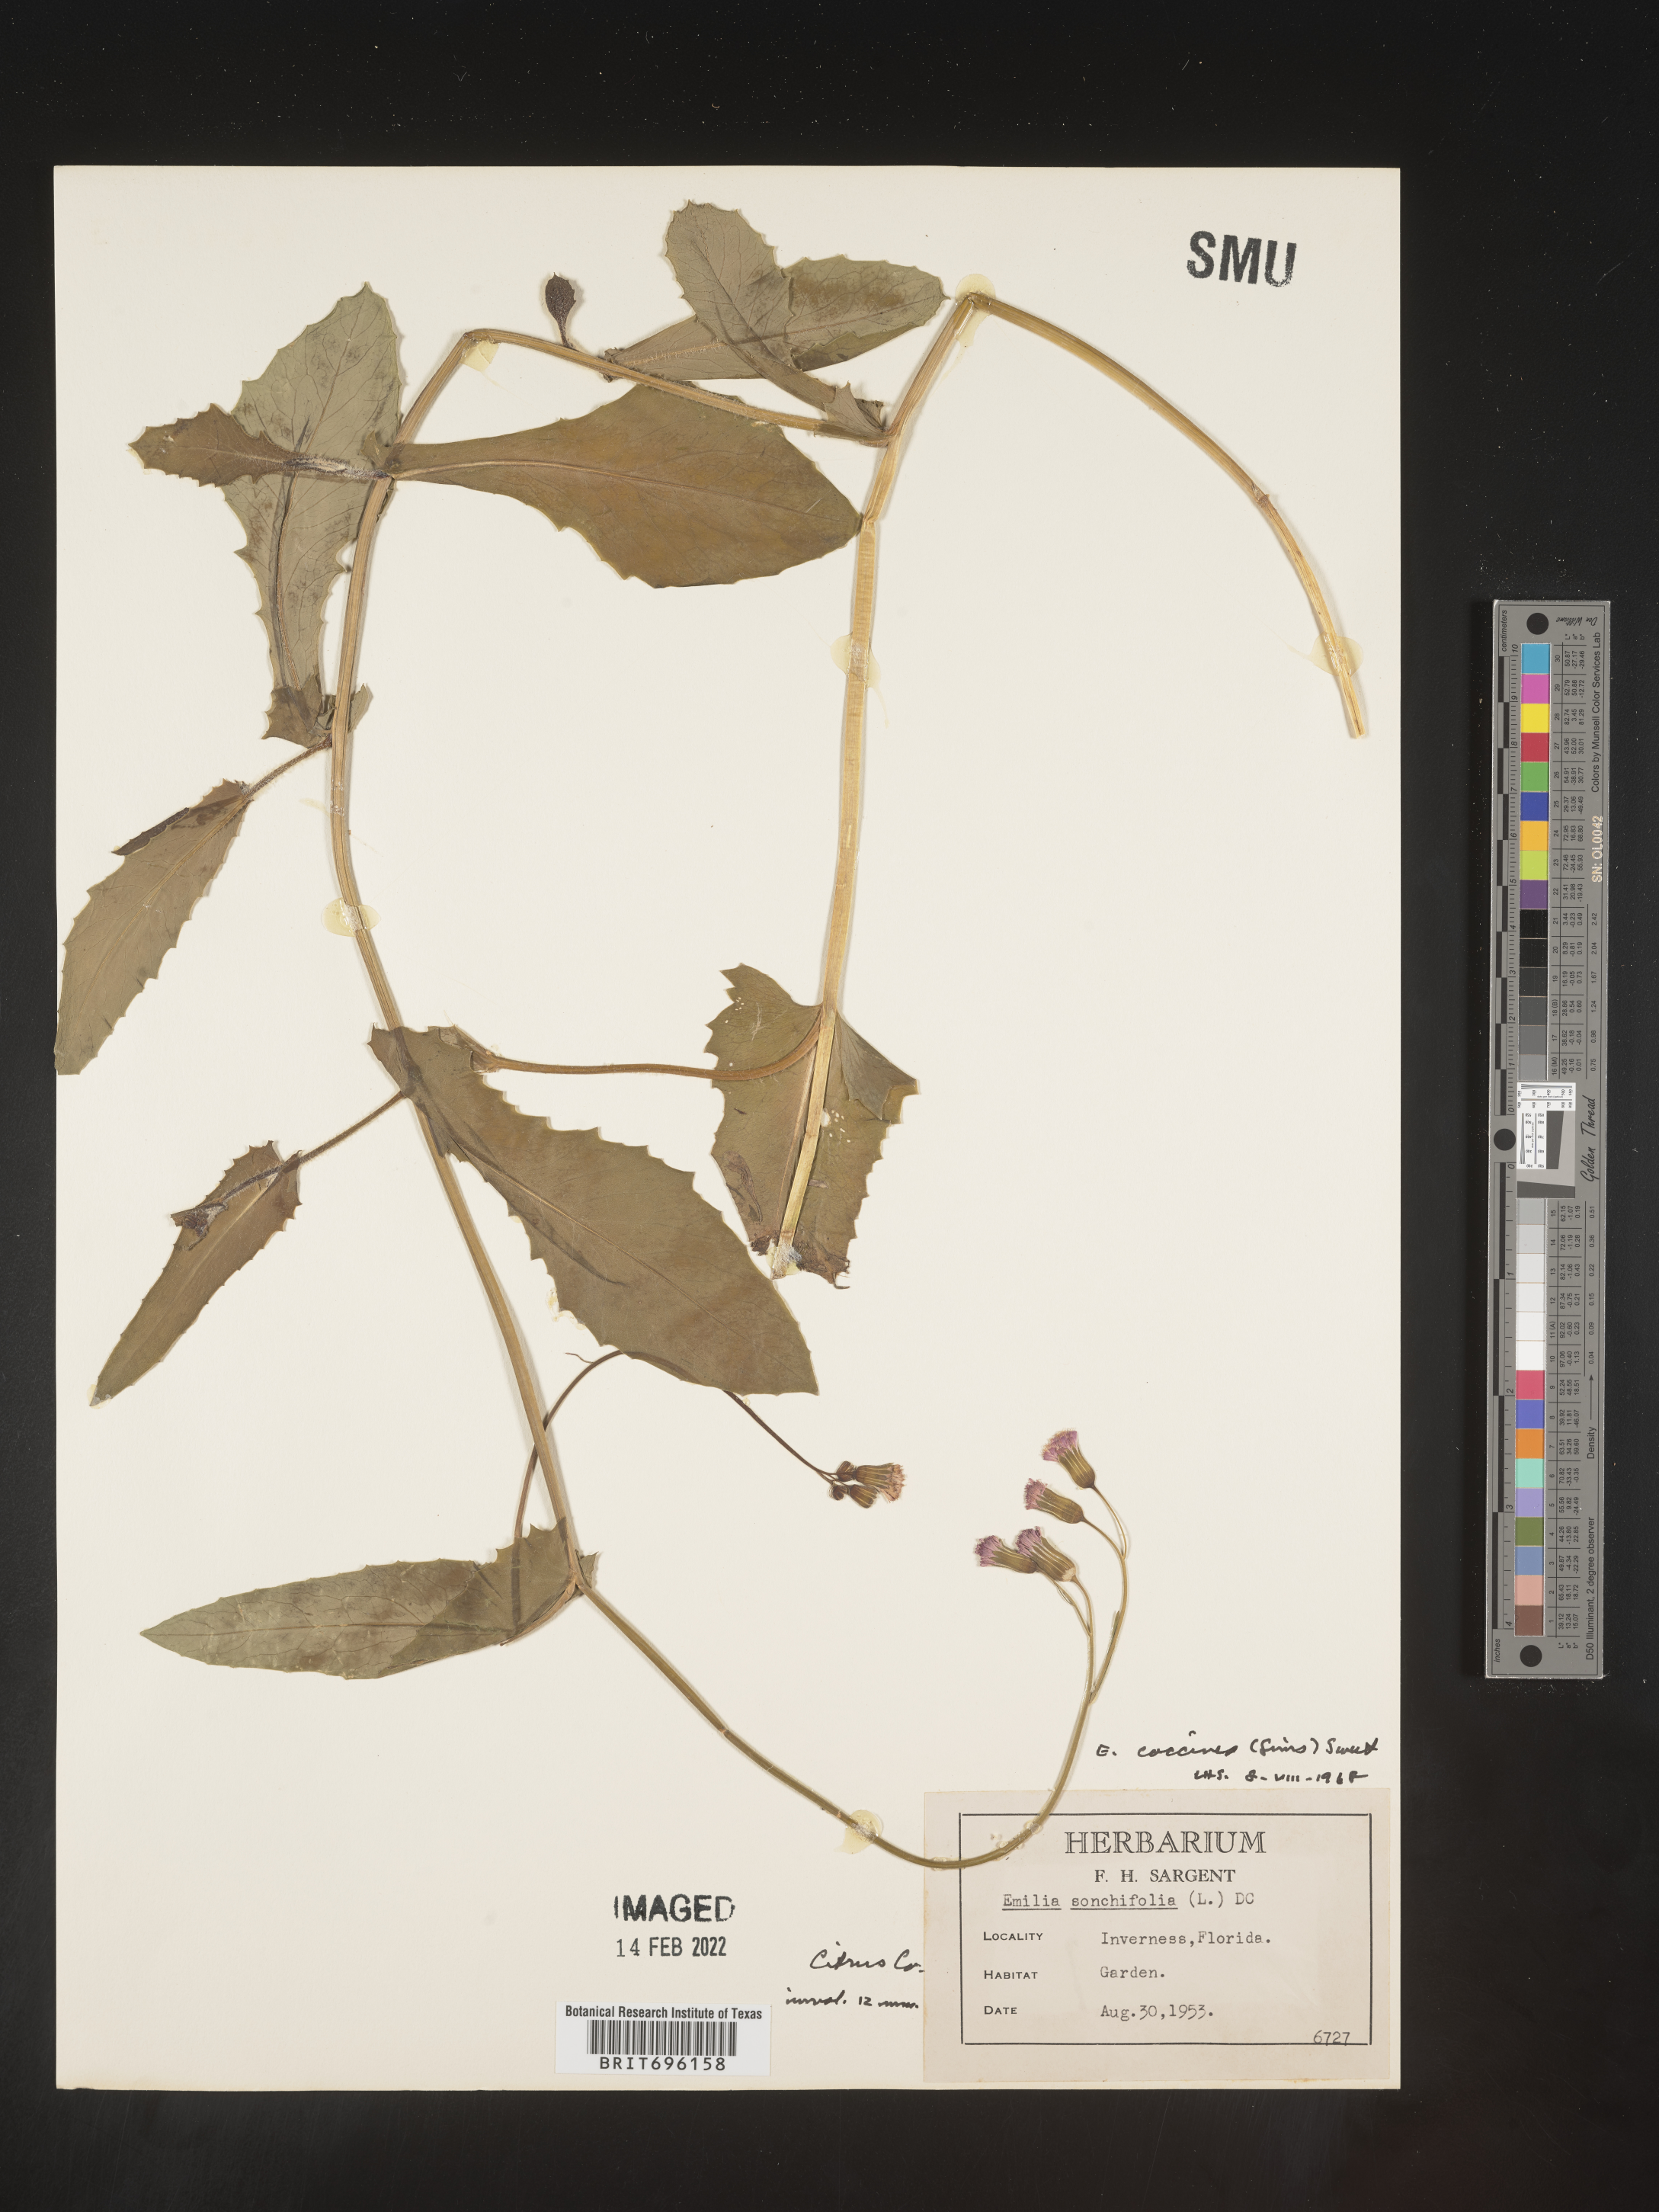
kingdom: Plantae
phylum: Tracheophyta
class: Magnoliopsida
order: Asterales
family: Asteraceae
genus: Emilia
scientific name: Emilia sonchifolia
